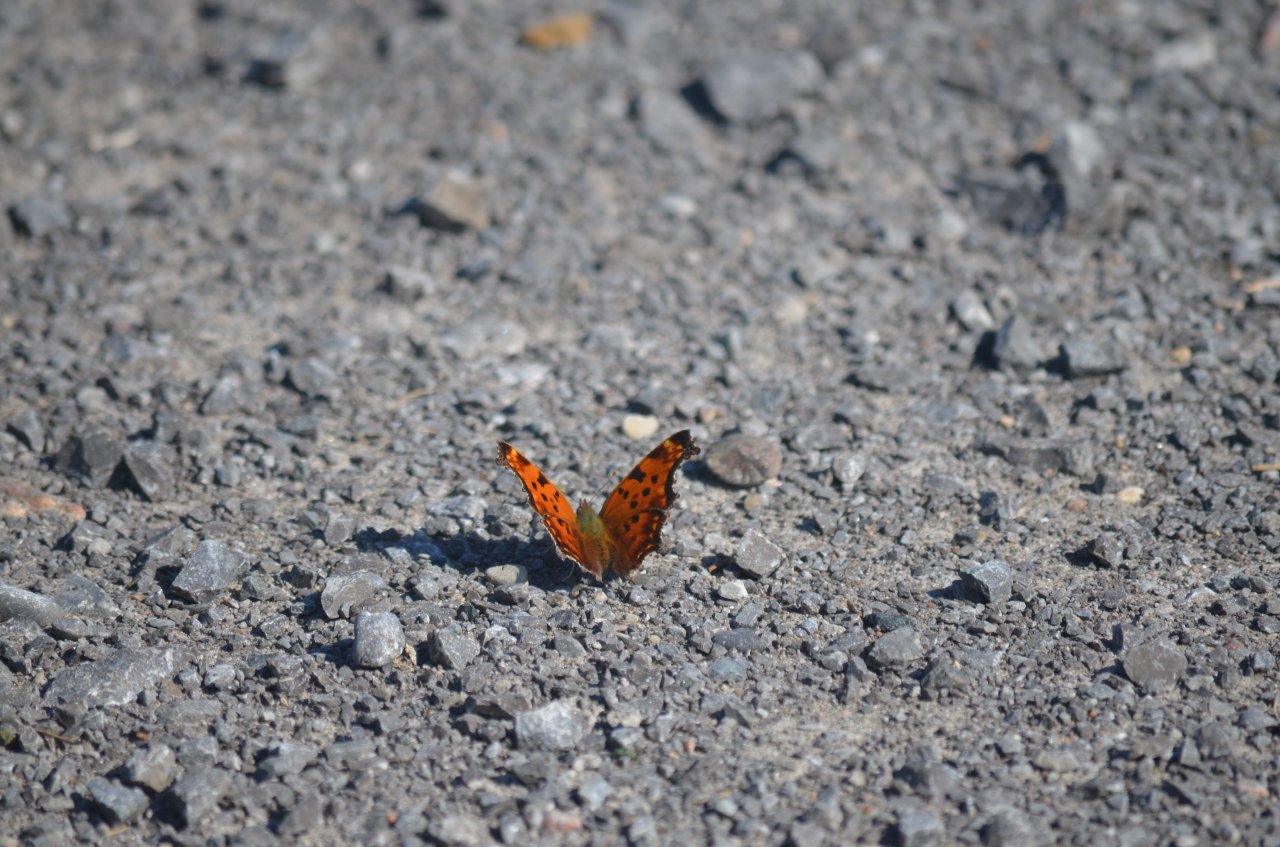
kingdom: Animalia
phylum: Arthropoda
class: Insecta
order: Lepidoptera
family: Nymphalidae
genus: Polygonia
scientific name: Polygonia comma
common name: Eastern Comma
